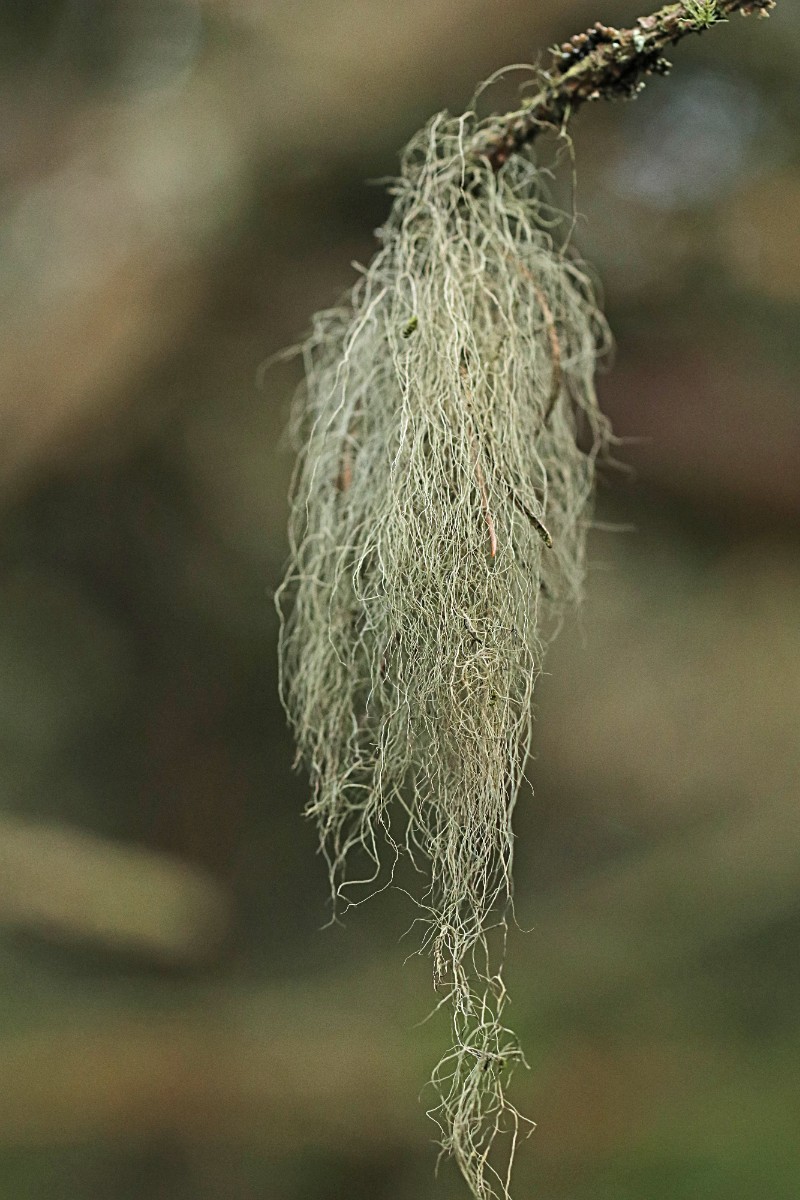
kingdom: Fungi
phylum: Ascomycota
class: Lecanoromycetes
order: Lecanorales
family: Parmeliaceae
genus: Bryoria
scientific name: Bryoria capillaris
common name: grå mankelav
